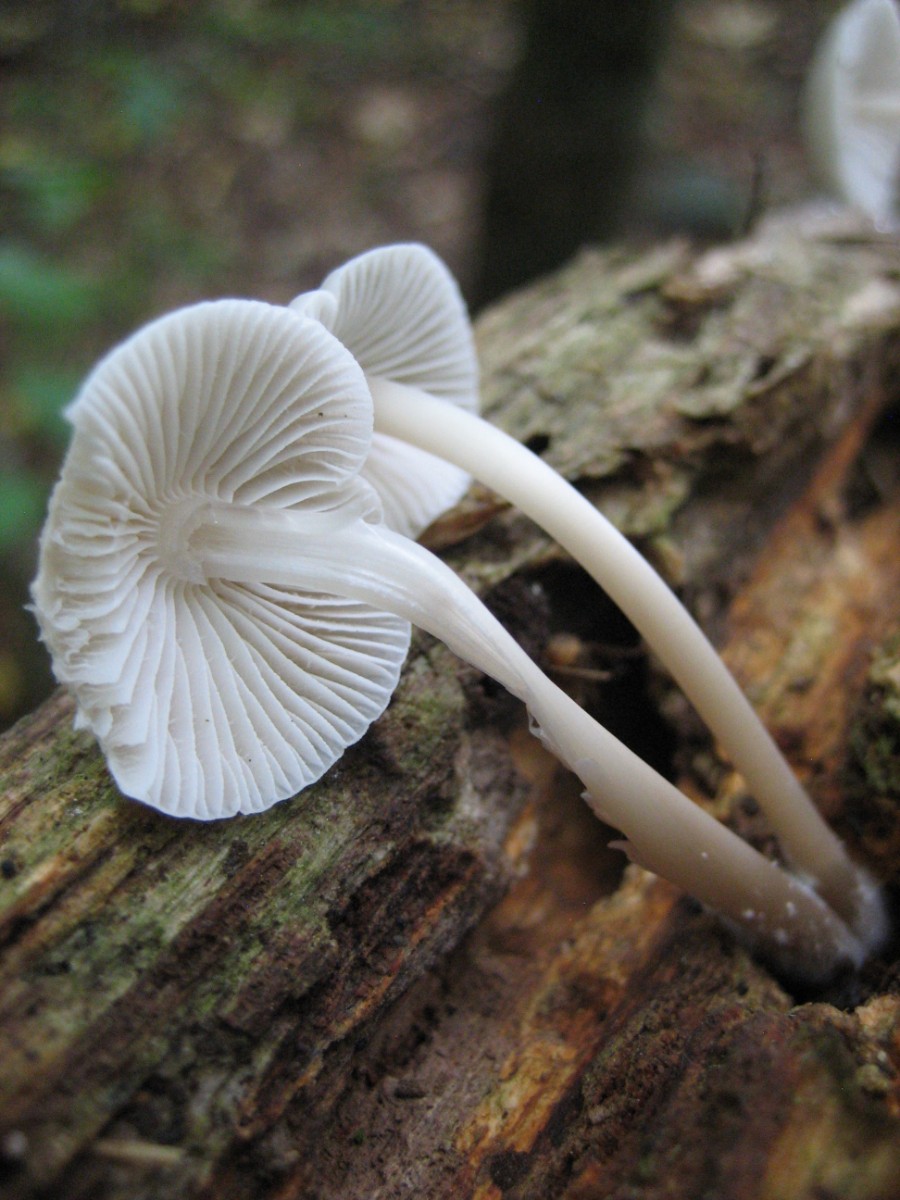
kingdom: Fungi
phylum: Basidiomycota
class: Agaricomycetes
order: Agaricales
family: Mycenaceae
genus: Mycena
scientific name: Mycena galericulata
